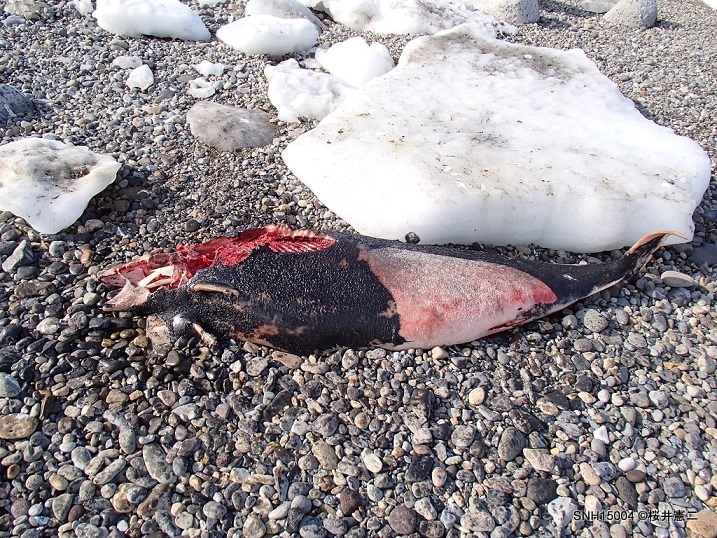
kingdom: Animalia
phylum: Chordata
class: Mammalia
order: Cetacea
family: Phocoenidae
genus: Phocoenoides
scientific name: Phocoenoides dalli
